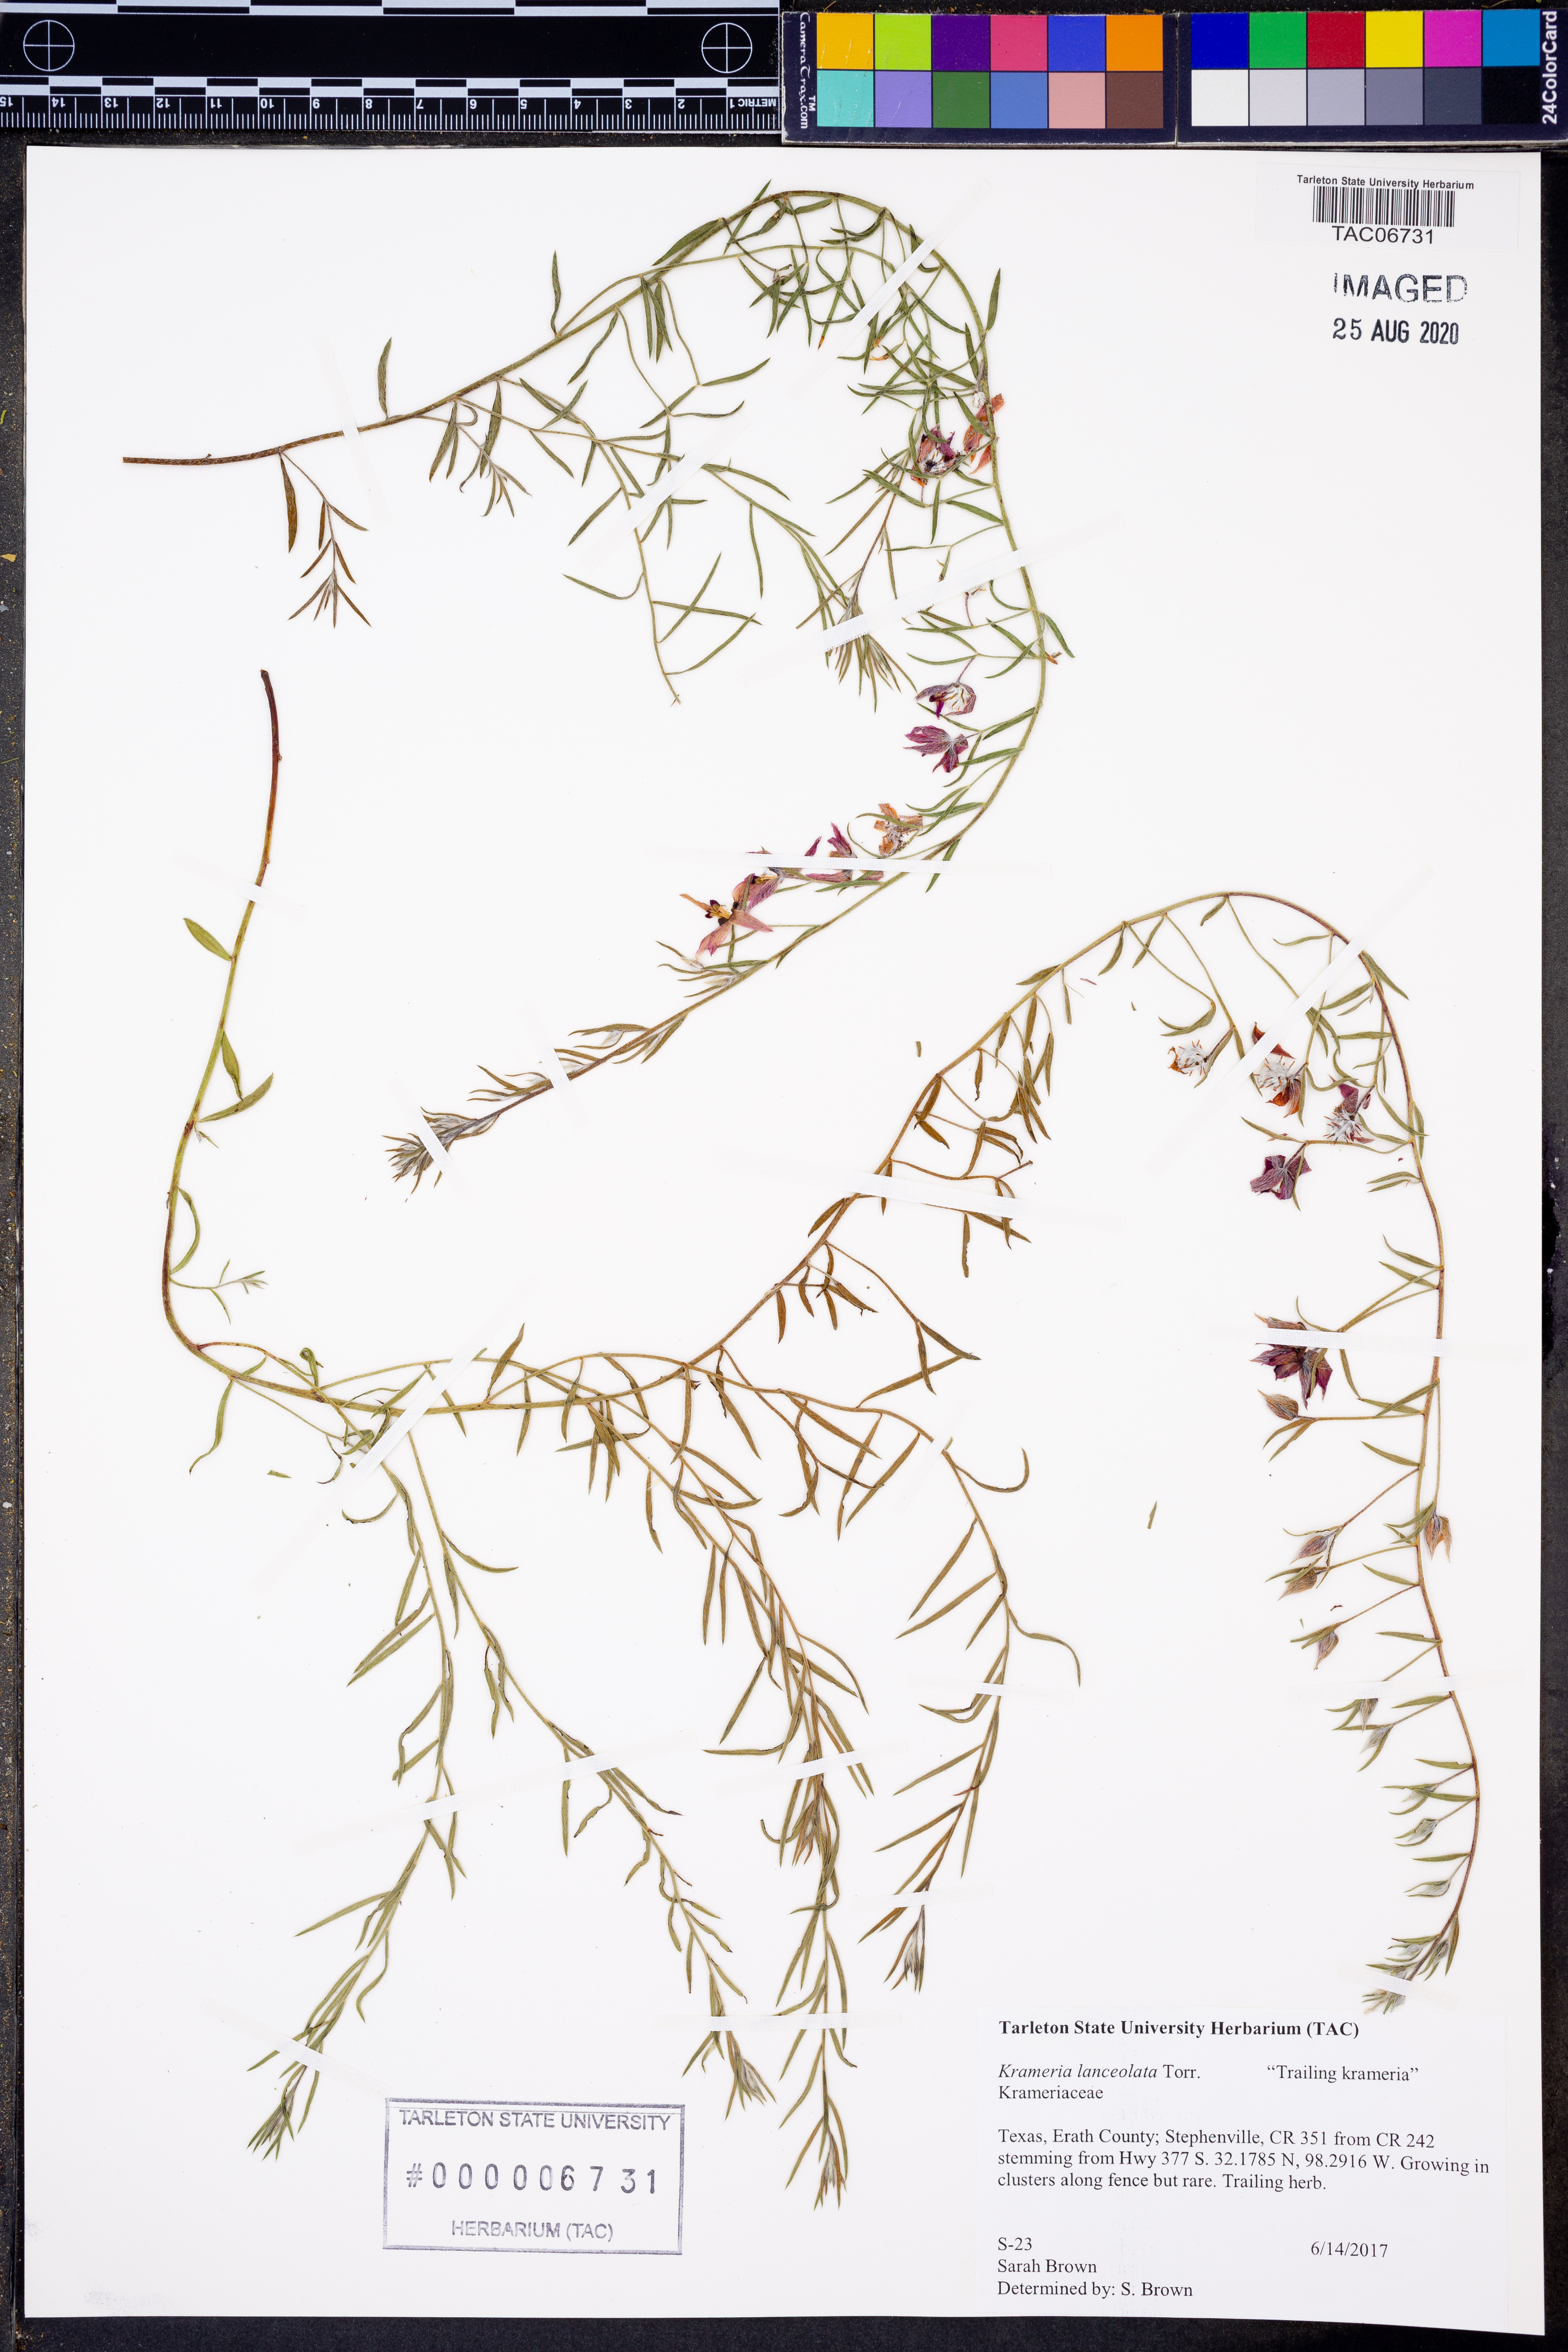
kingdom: Plantae
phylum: Tracheophyta
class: Magnoliopsida
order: Zygophyllales
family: Krameriaceae
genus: Krameria
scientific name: Krameria lanceolata
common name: Ratany
